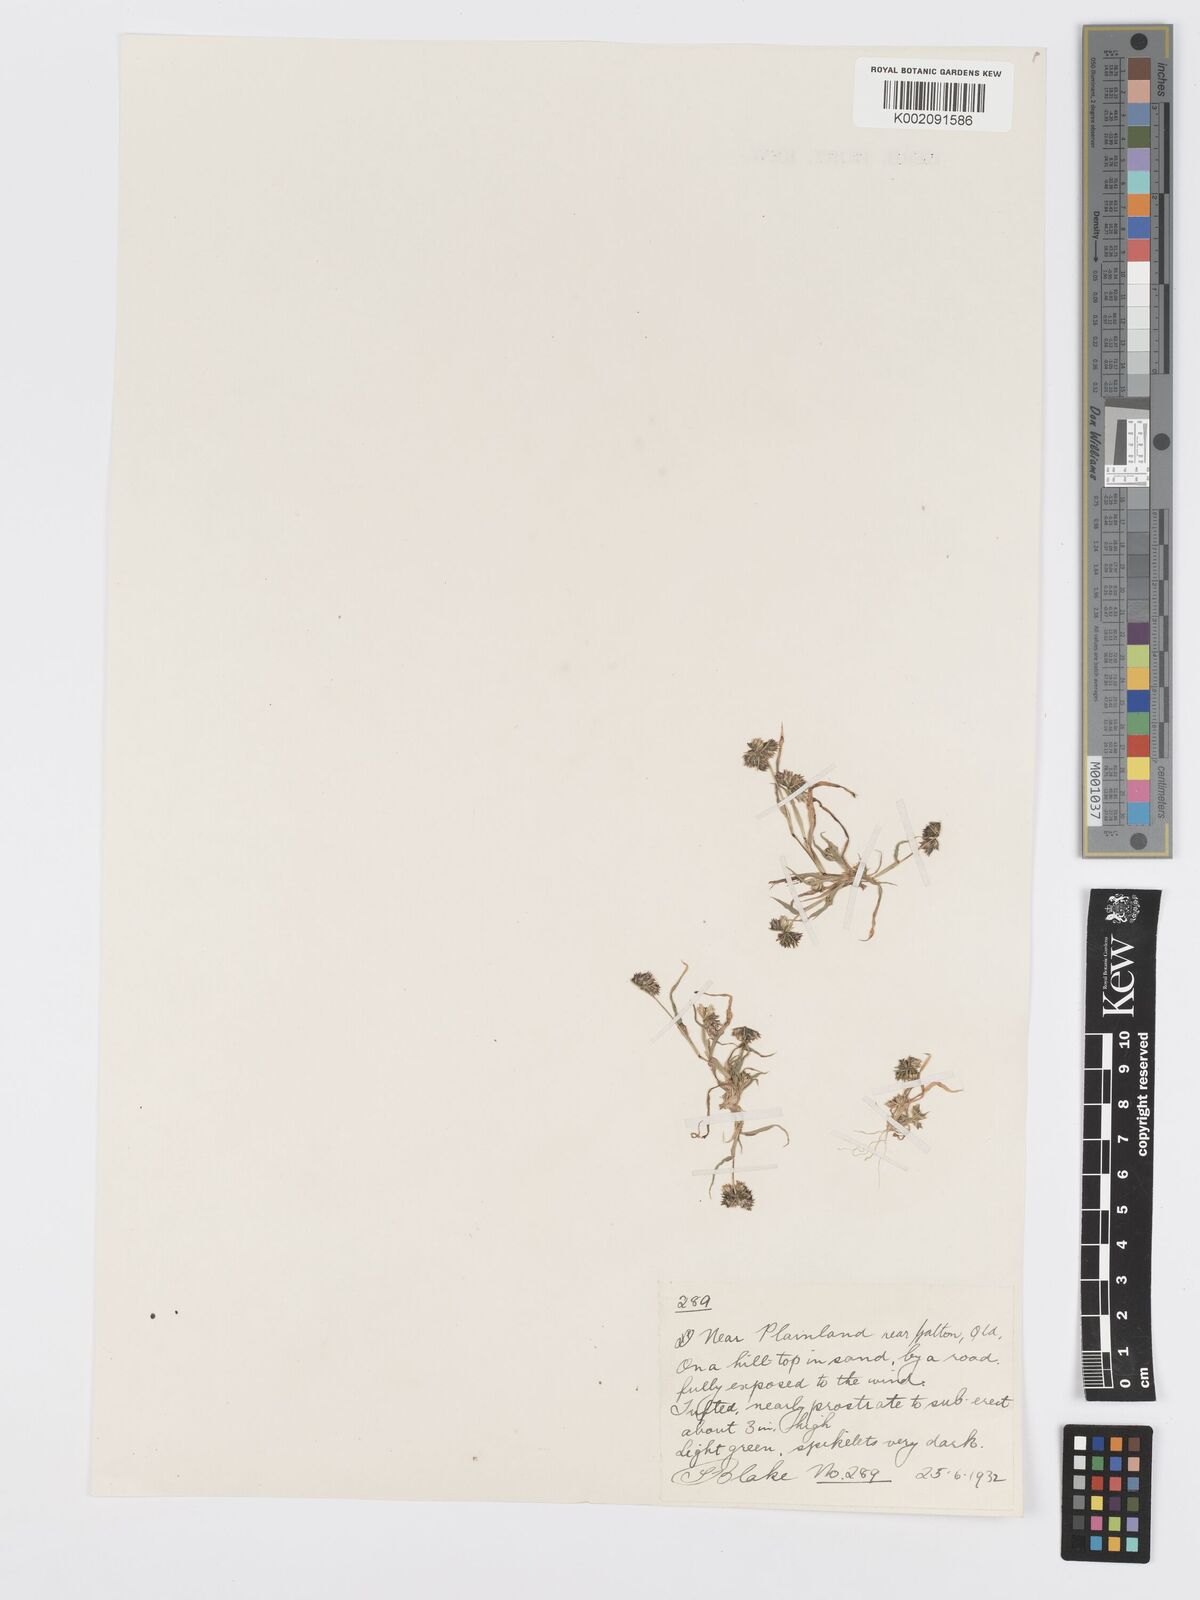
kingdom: Plantae
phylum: Tracheophyta
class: Liliopsida
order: Poales
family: Poaceae
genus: Dactyloctenium
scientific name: Dactyloctenium radulans
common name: Button-grass
